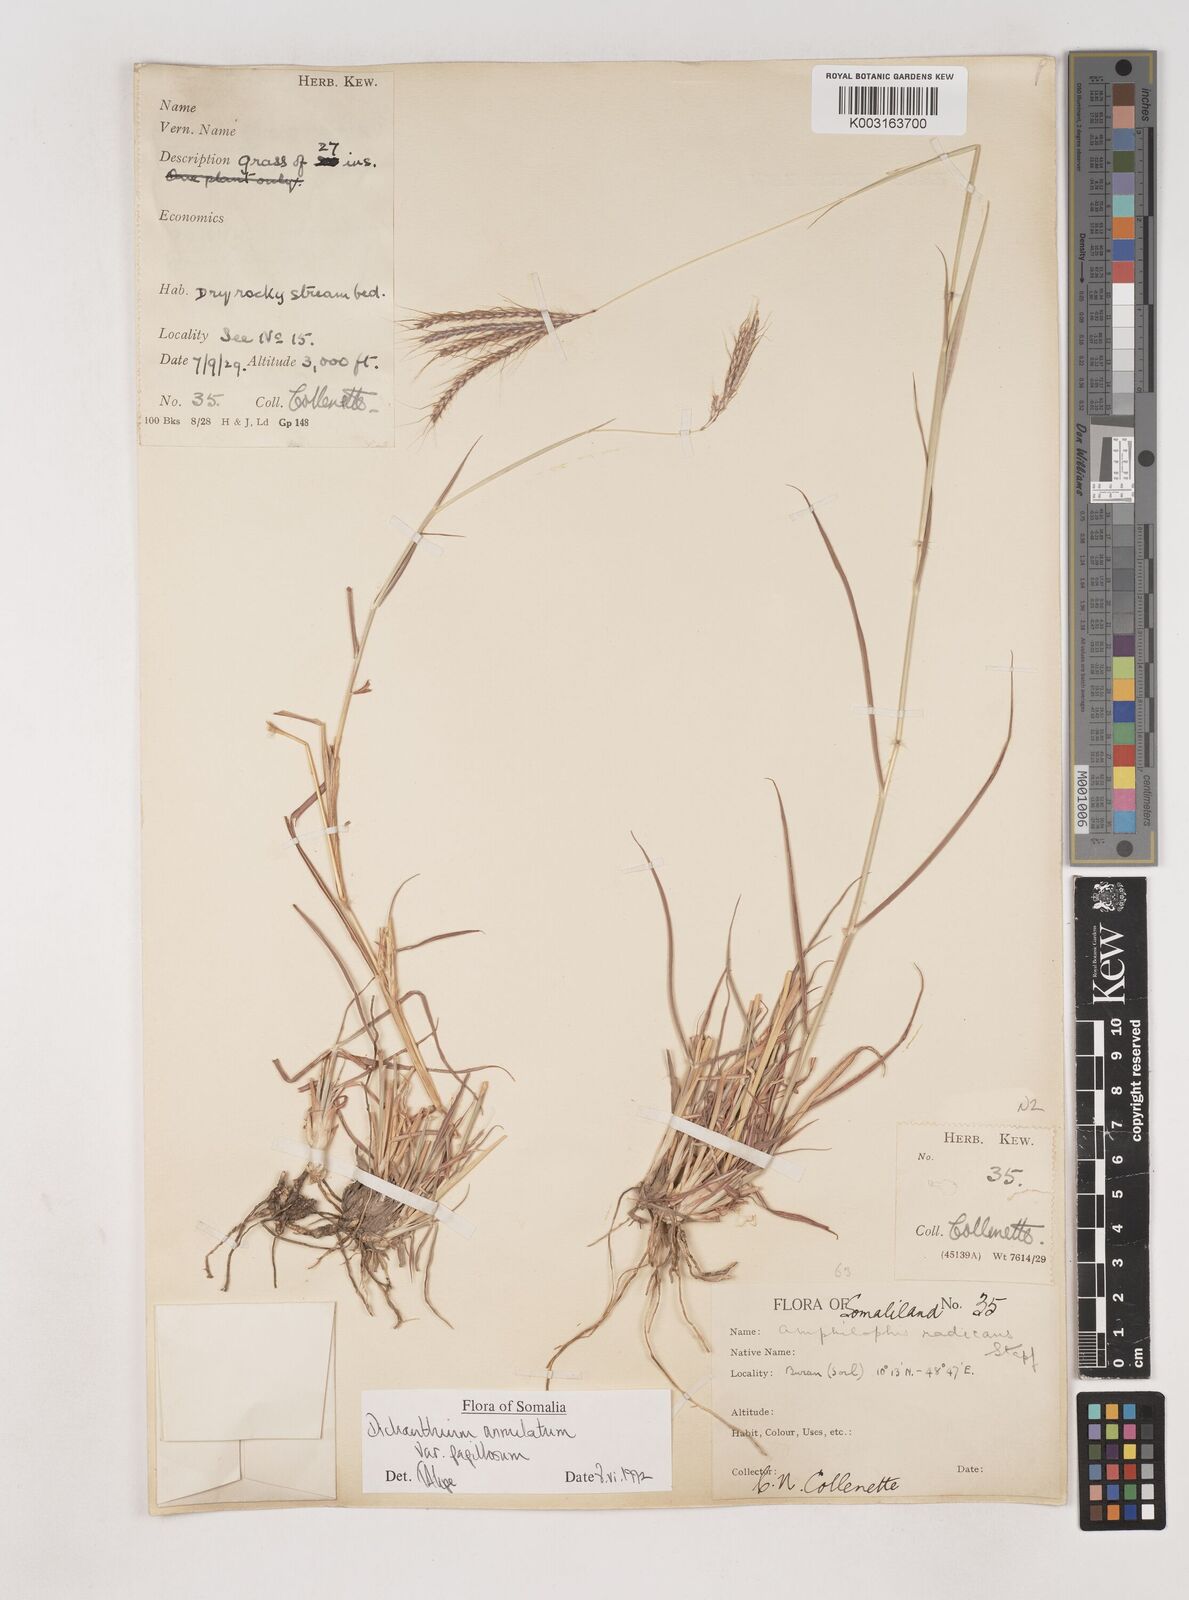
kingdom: Plantae
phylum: Tracheophyta
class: Liliopsida
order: Poales
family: Poaceae
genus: Dichanthium
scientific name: Dichanthium annulatum
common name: Kleberg's bluestem
